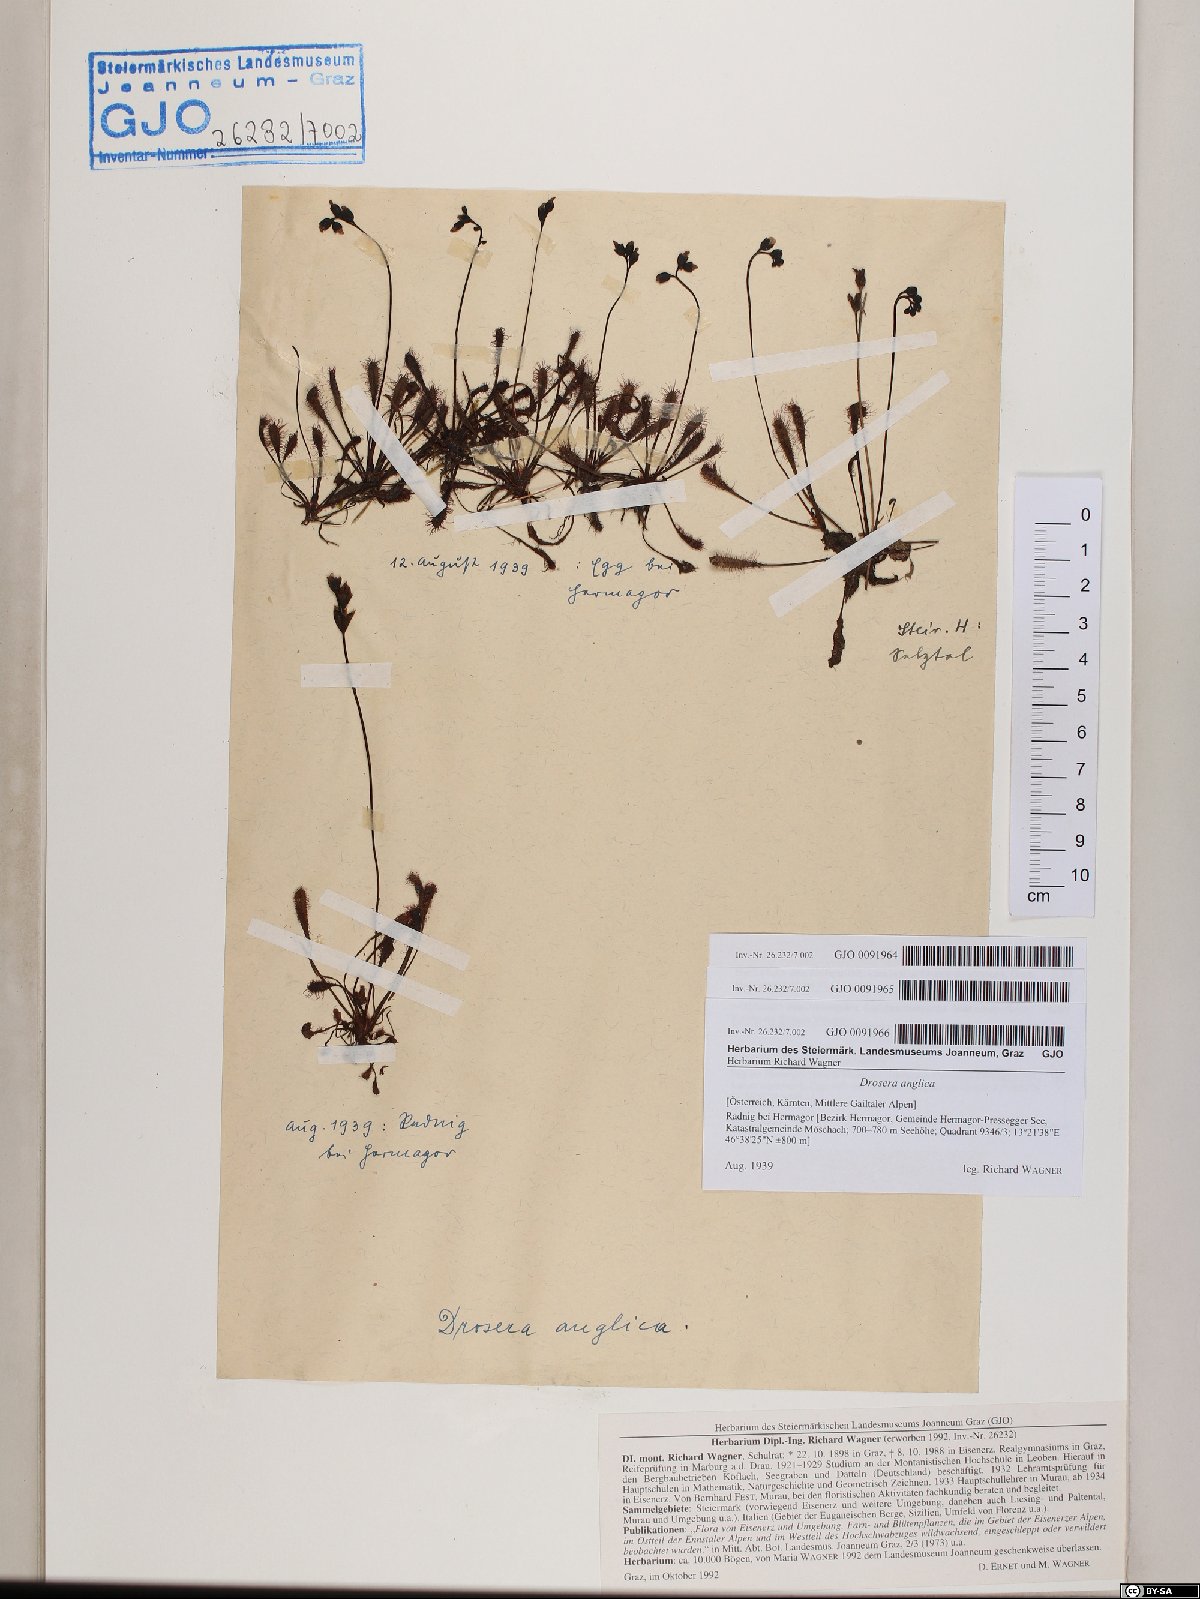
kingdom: Plantae
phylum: Tracheophyta
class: Magnoliopsida
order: Caryophyllales
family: Droseraceae
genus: Drosera
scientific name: Drosera anglica
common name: Great sundew
